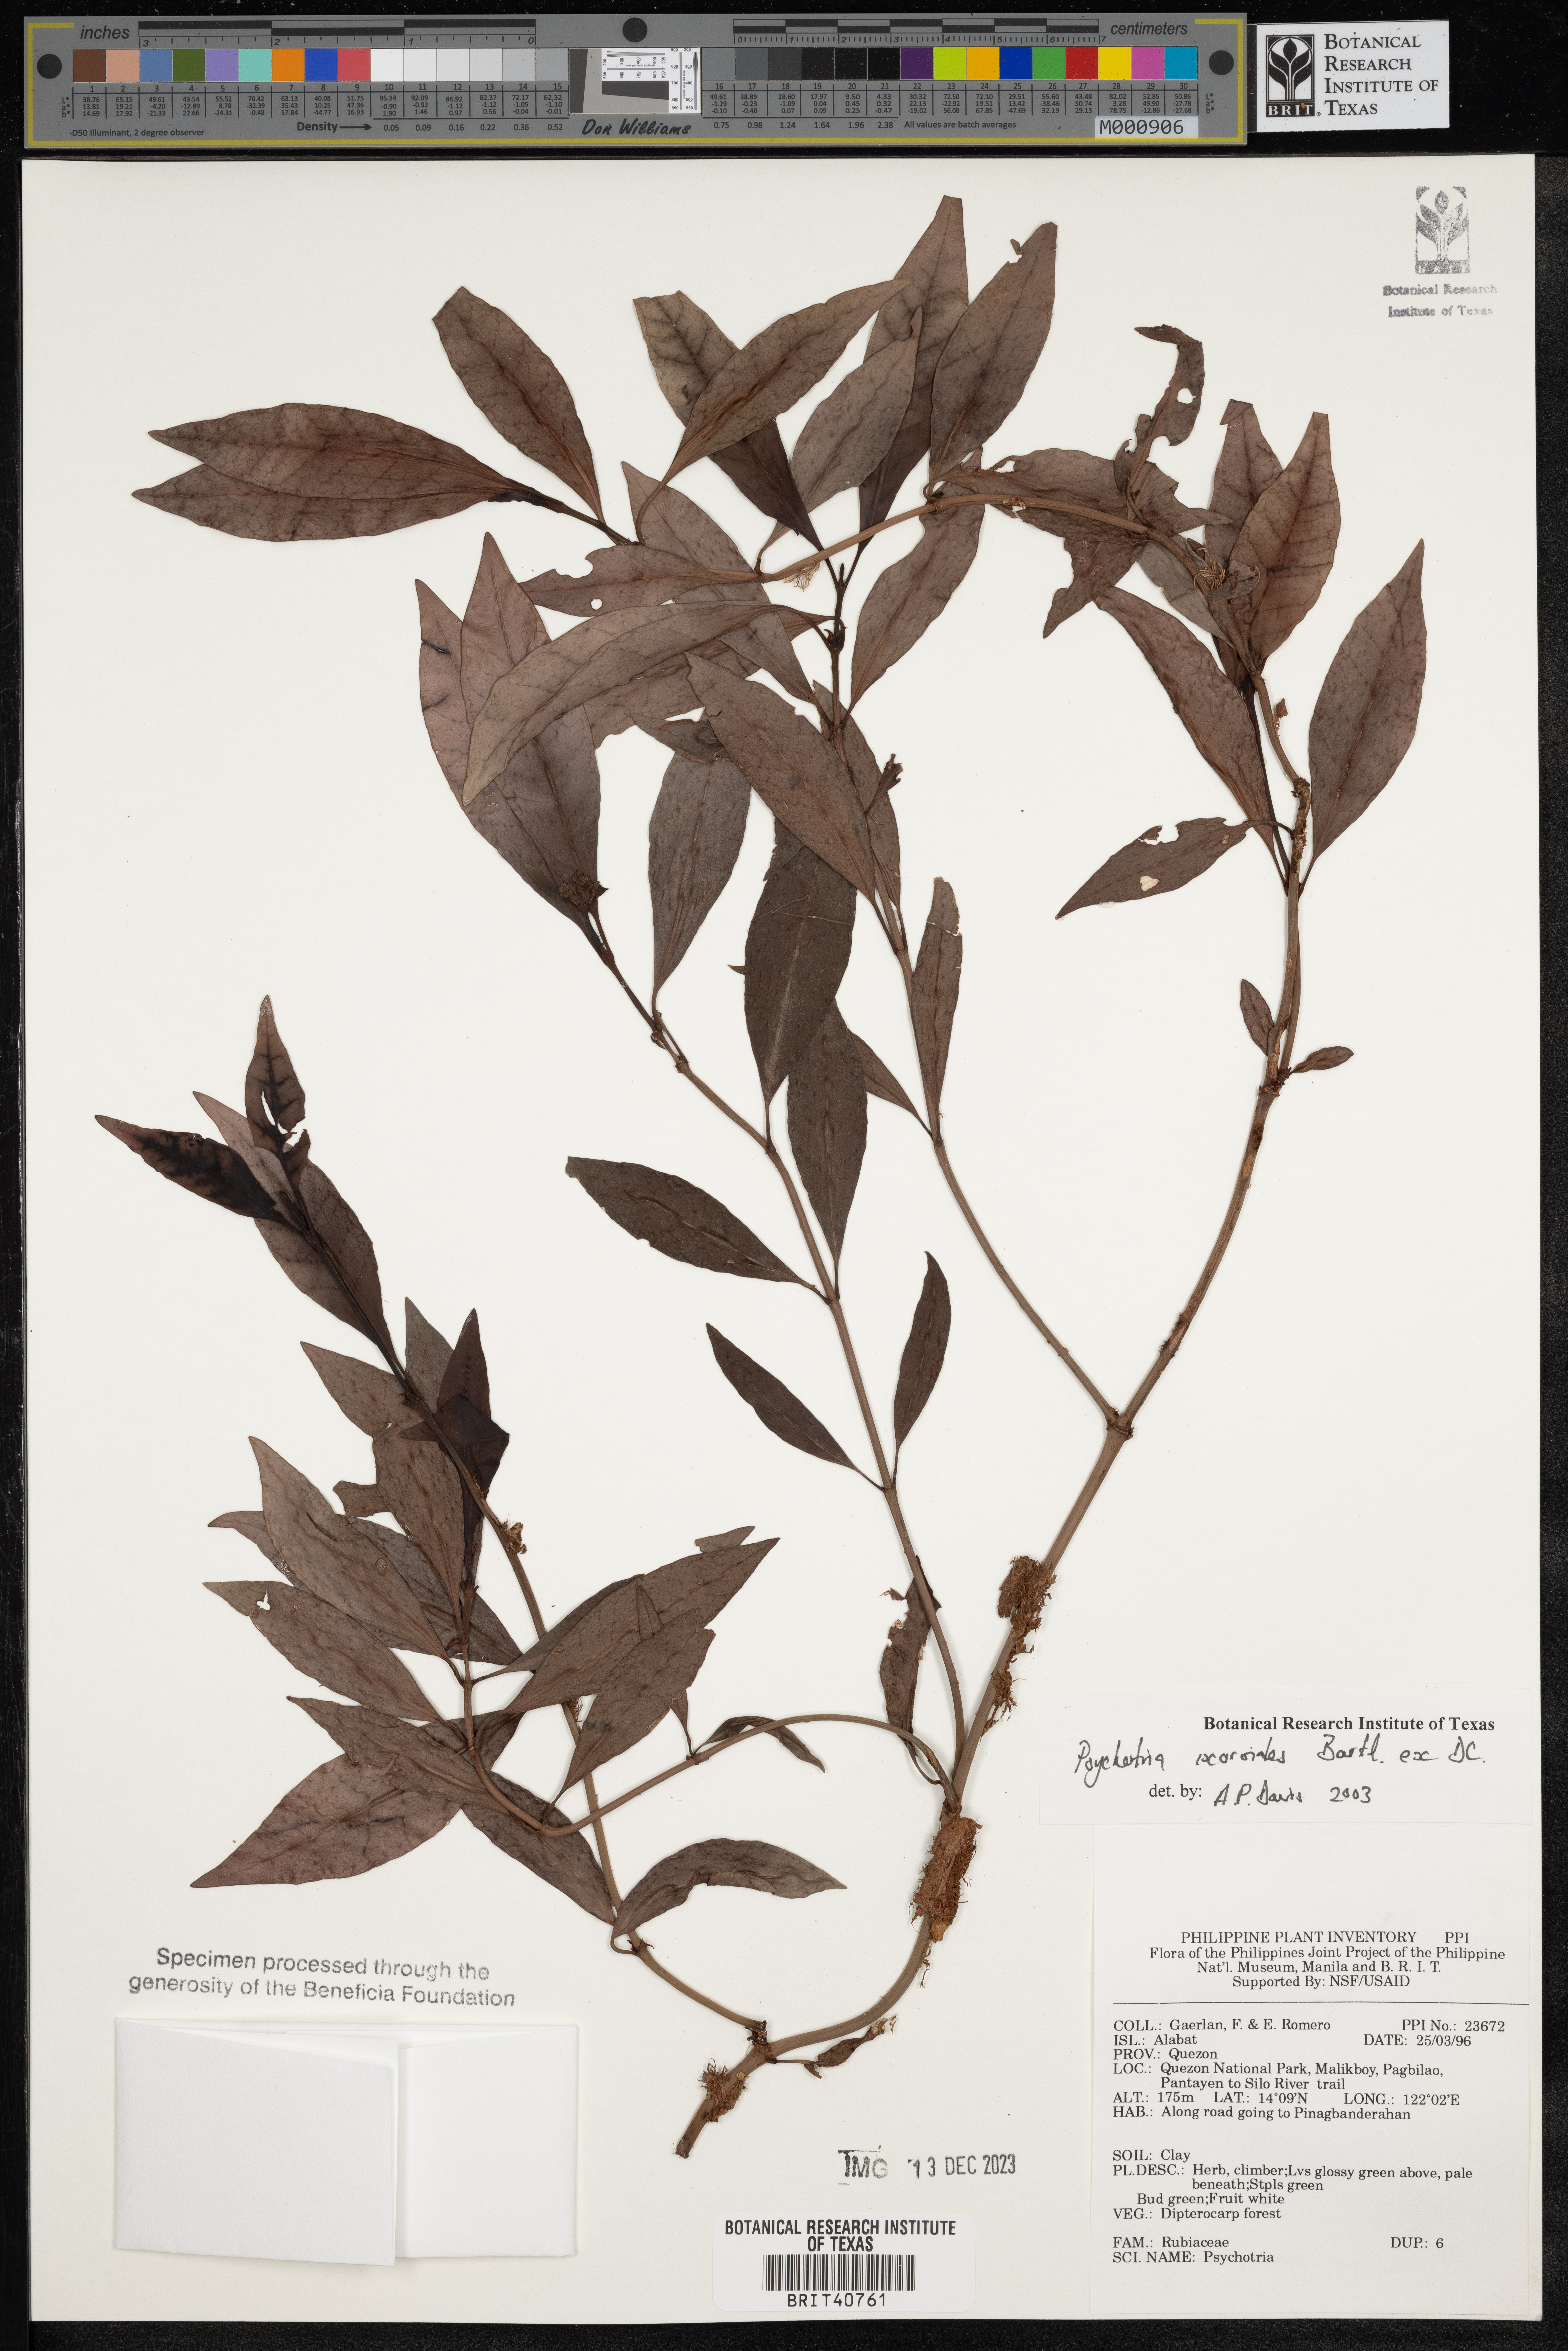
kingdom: Plantae
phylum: Tracheophyta
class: Magnoliopsida
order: Gentianales
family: Rubiaceae
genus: Psychotria
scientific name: Psychotria ixoroides
